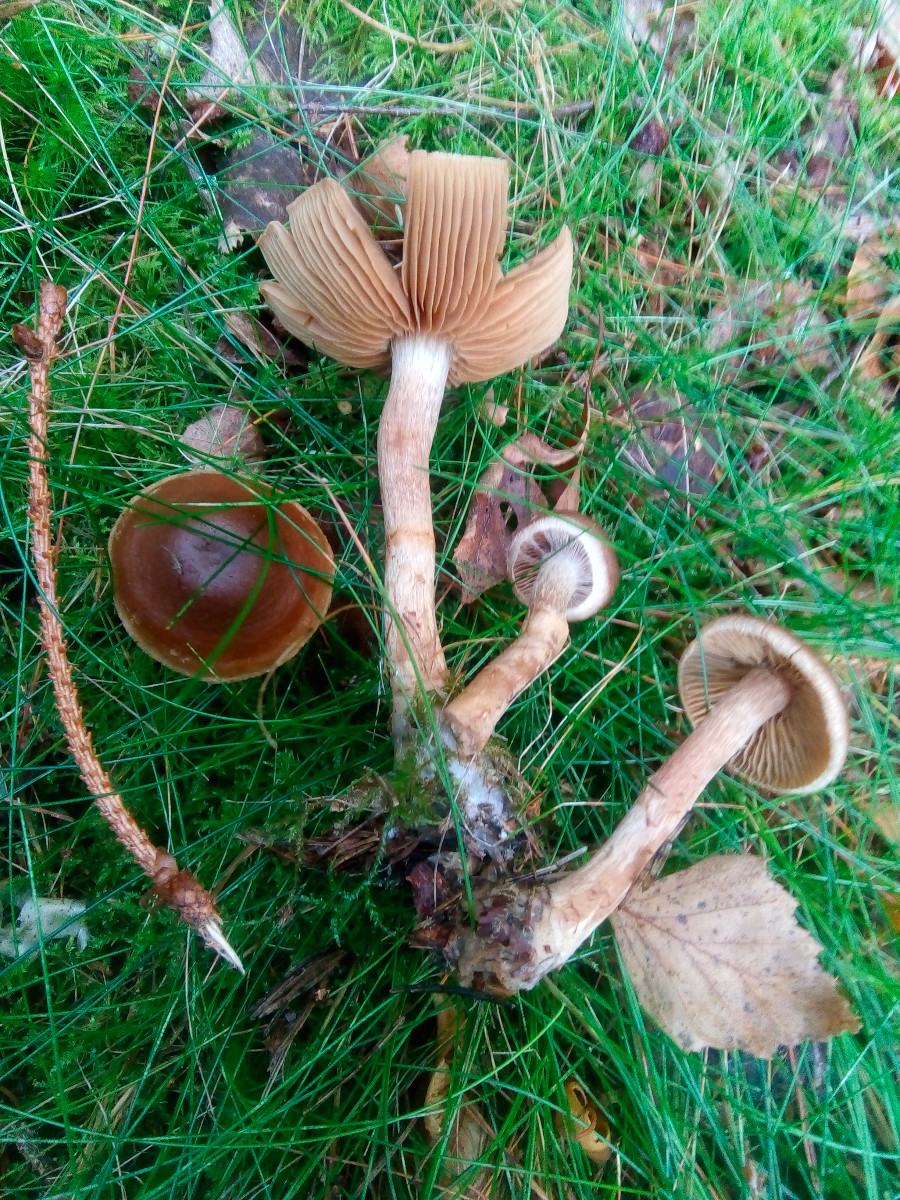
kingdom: Fungi
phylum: Basidiomycota
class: Agaricomycetes
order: Agaricales
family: Cortinariaceae
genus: Cortinarius
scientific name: Cortinarius raphanoides
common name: ræddike-slørhat
